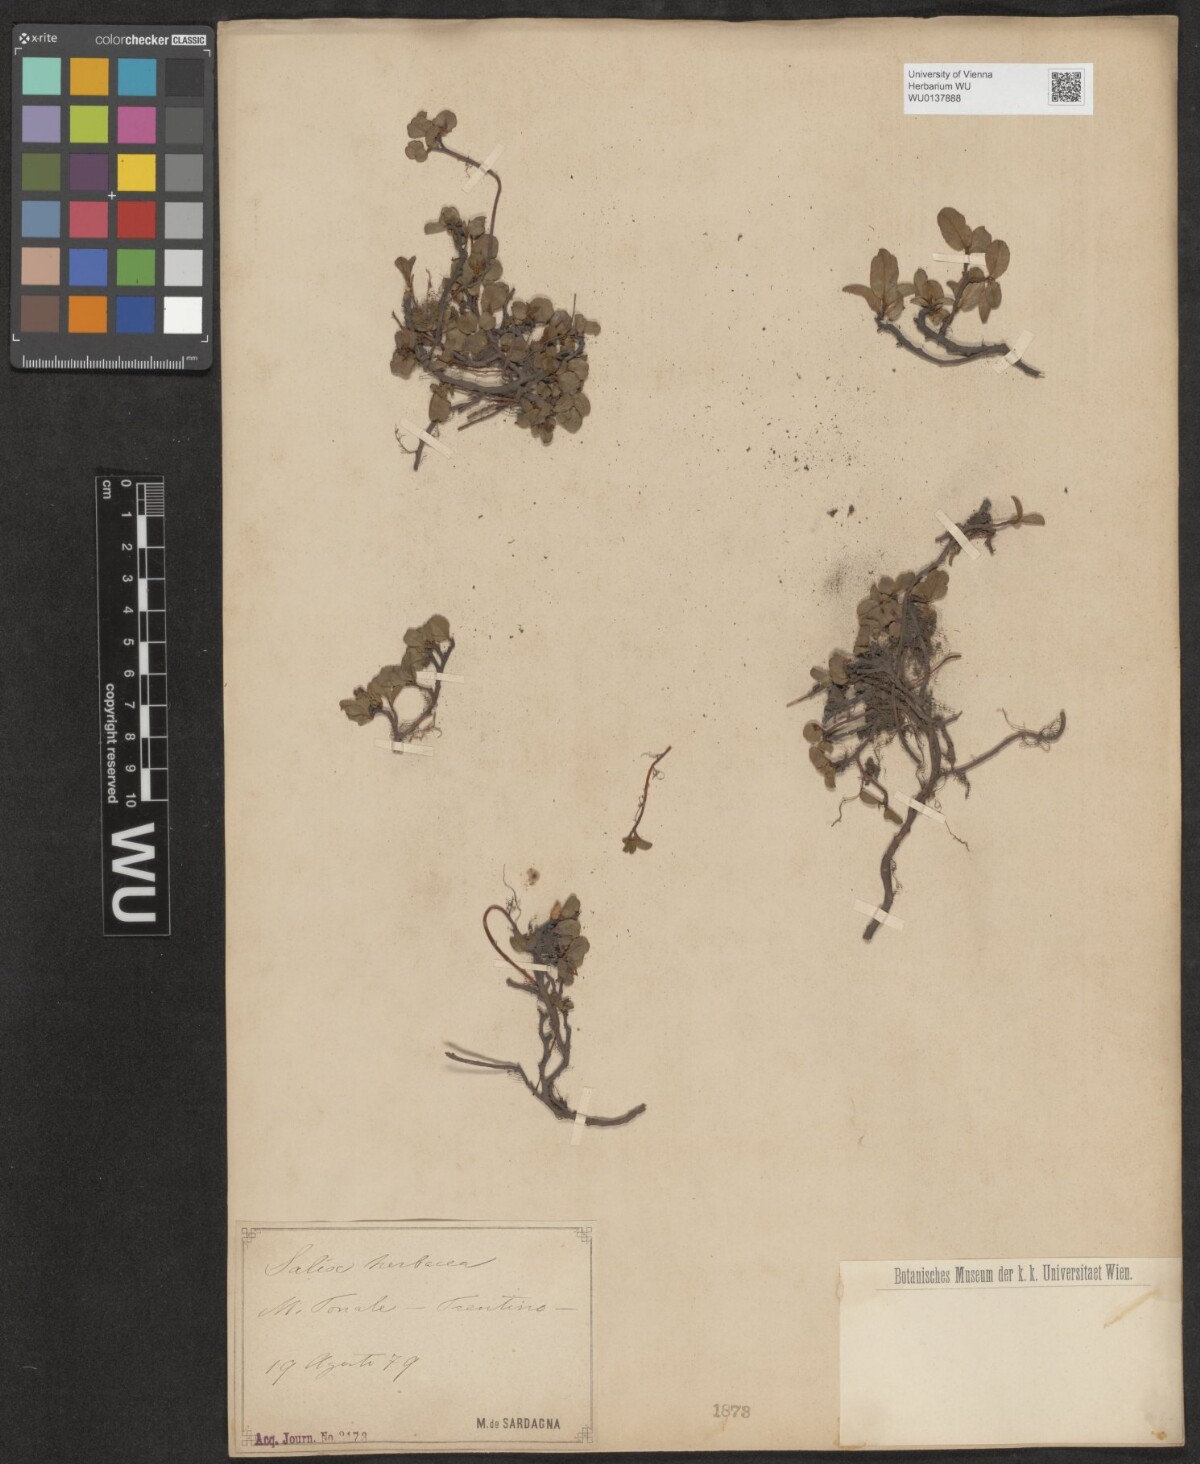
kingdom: Plantae
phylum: Tracheophyta
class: Magnoliopsida
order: Malpighiales
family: Salicaceae
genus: Salix
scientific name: Salix herbacea
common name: Dwarf willow
